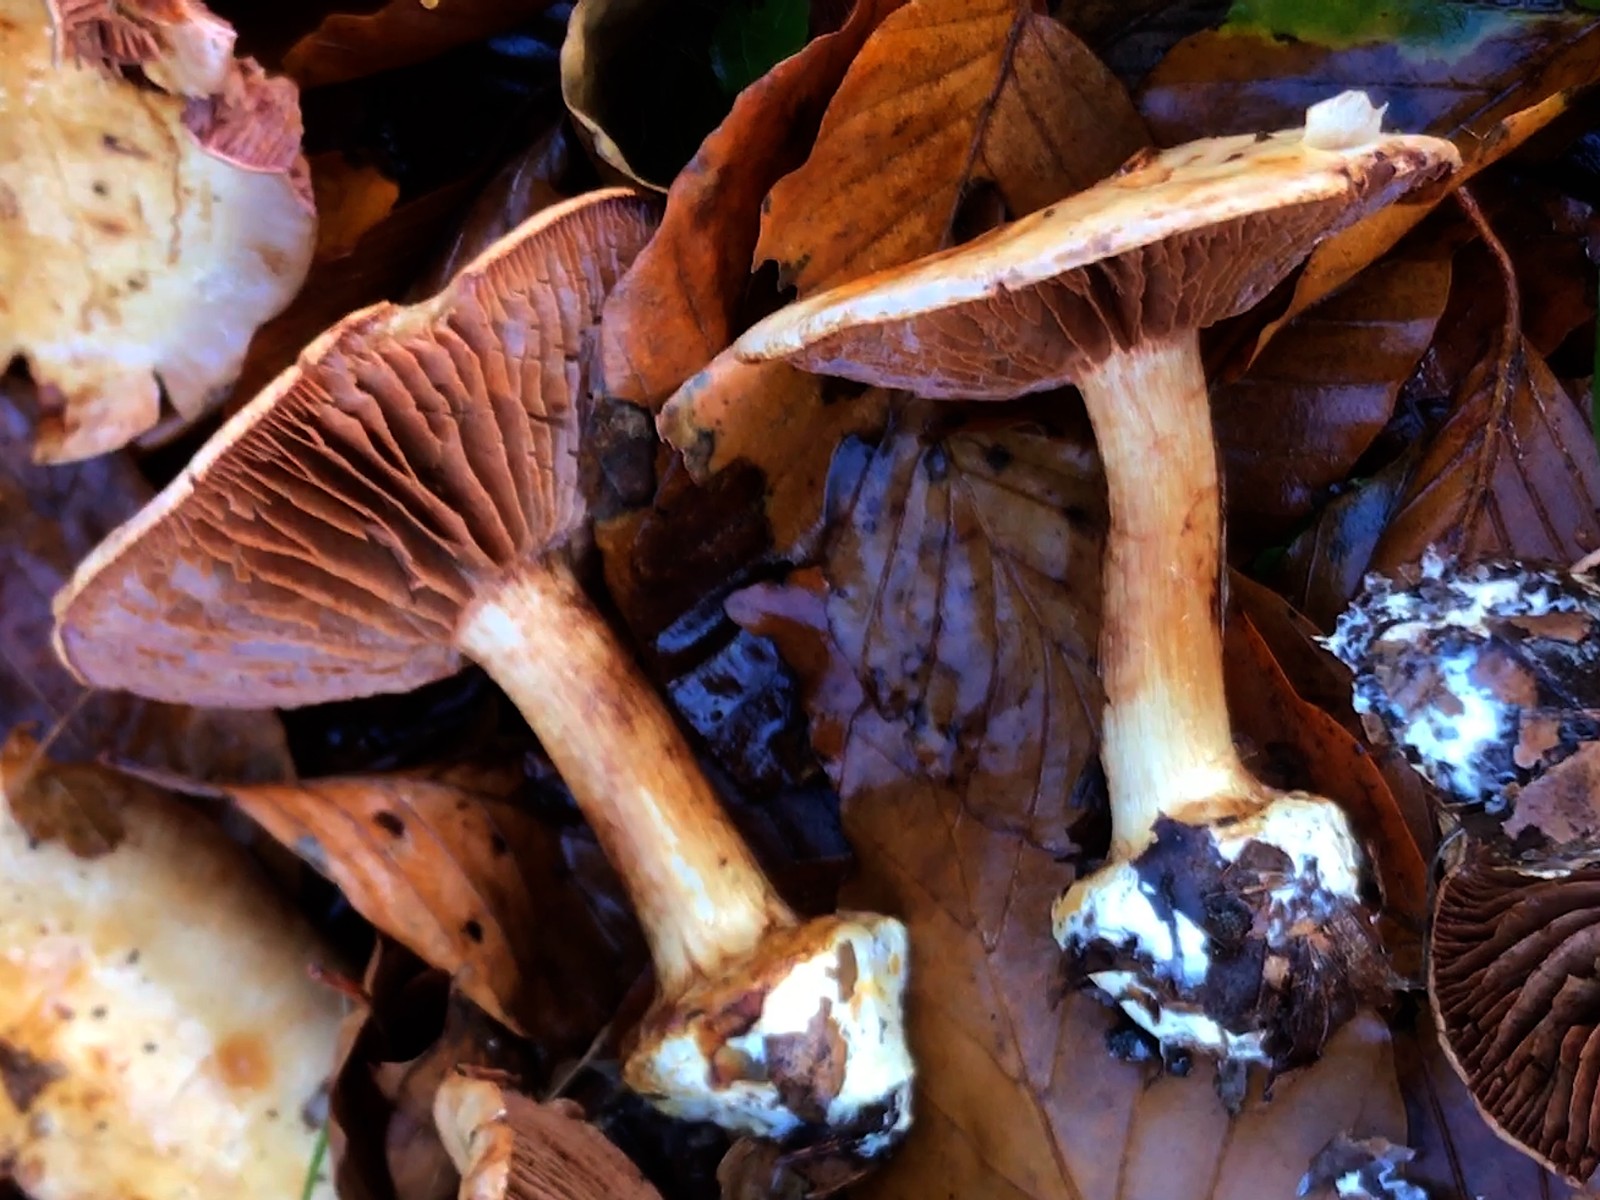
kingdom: Fungi
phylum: Basidiomycota
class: Agaricomycetes
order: Agaricales
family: Cortinariaceae
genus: Cortinarius
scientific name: Cortinarius
